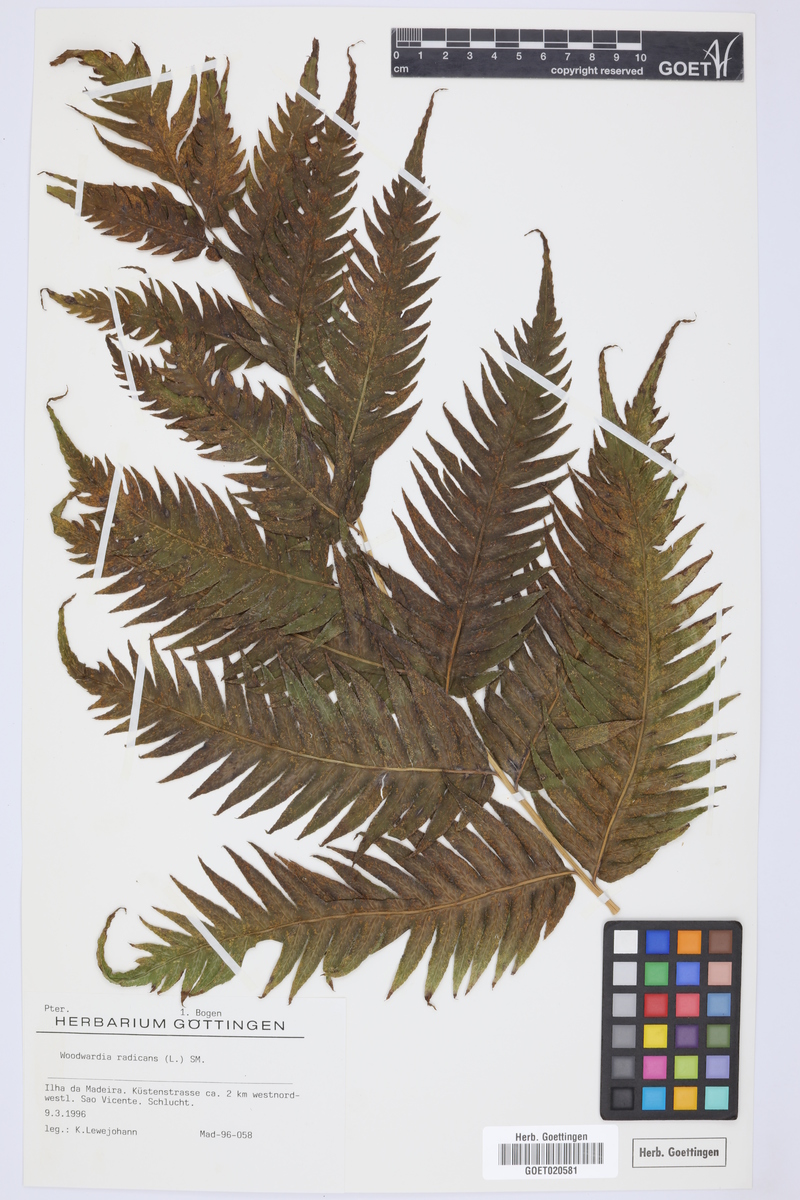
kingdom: Plantae
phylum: Tracheophyta
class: Polypodiopsida
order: Polypodiales
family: Blechnaceae
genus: Woodwardia
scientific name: Woodwardia radicans
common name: Rooting chainfern
